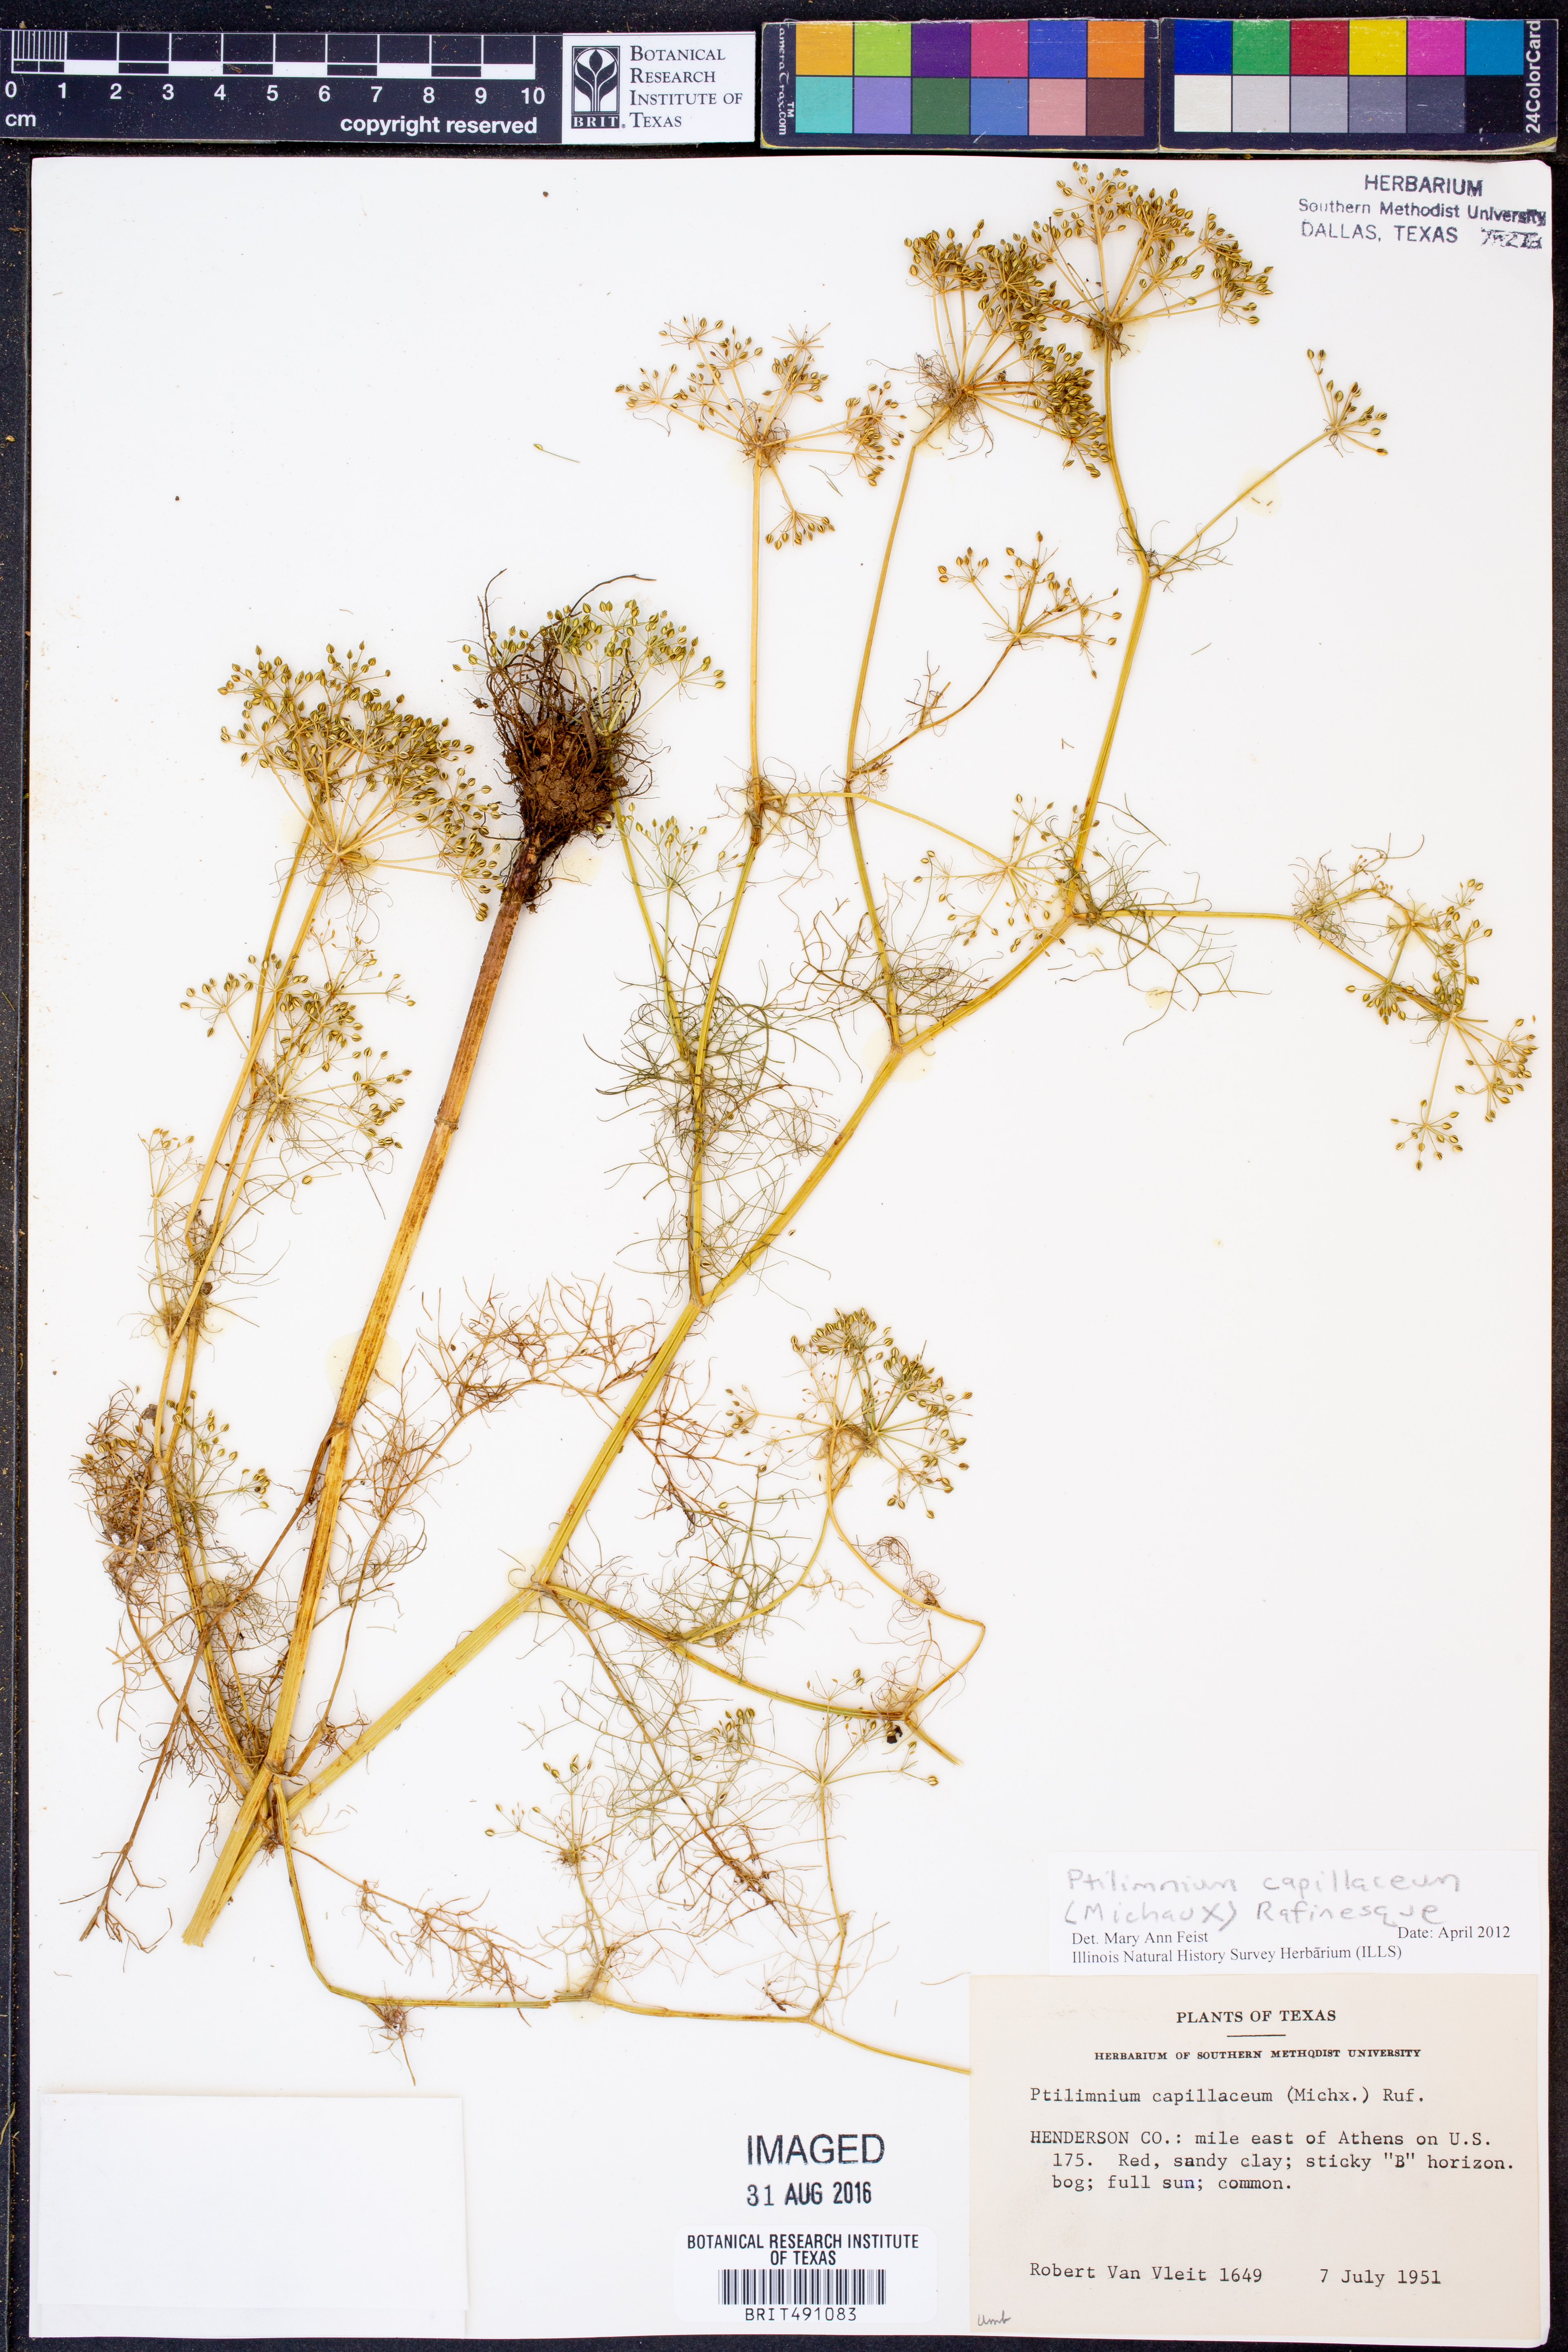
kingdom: Plantae
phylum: Tracheophyta
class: Magnoliopsida
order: Apiales
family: Apiaceae
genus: Ptilimnium
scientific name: Ptilimnium capillaceum
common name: Herbwilliam
